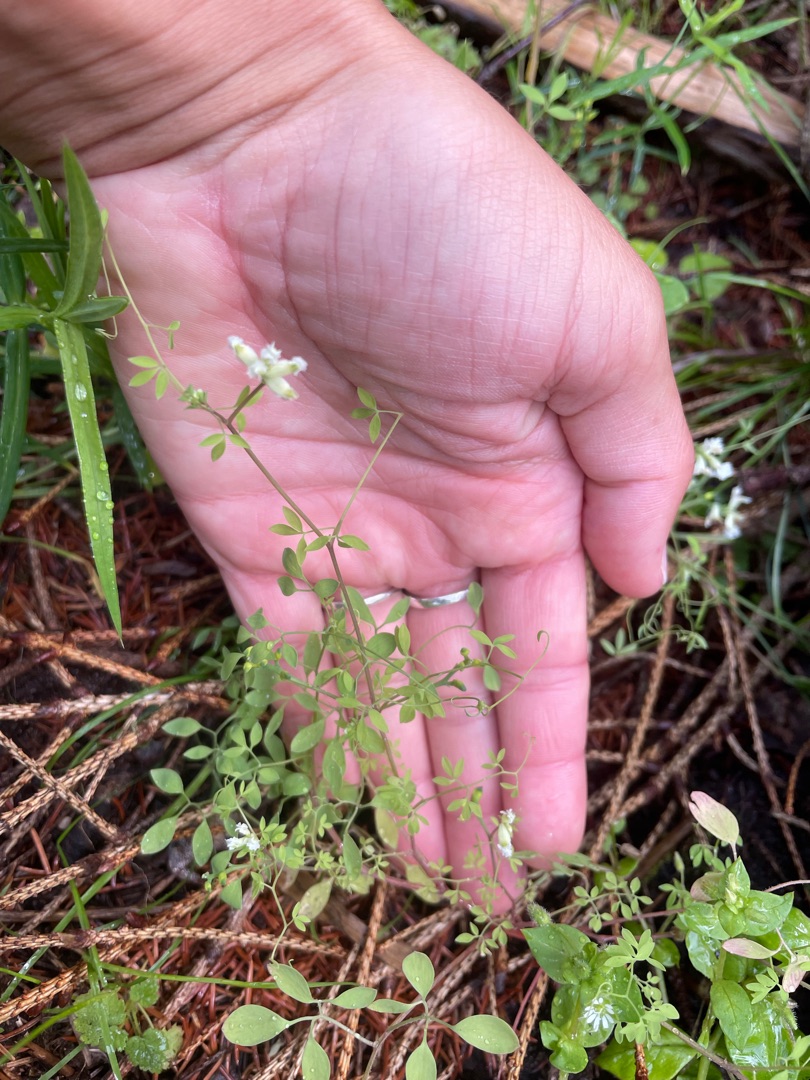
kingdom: Plantae
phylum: Tracheophyta
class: Magnoliopsida
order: Ranunculales
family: Papaveraceae
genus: Ceratocapnos
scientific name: Ceratocapnos claviculata
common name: Klatrende lærkespore
